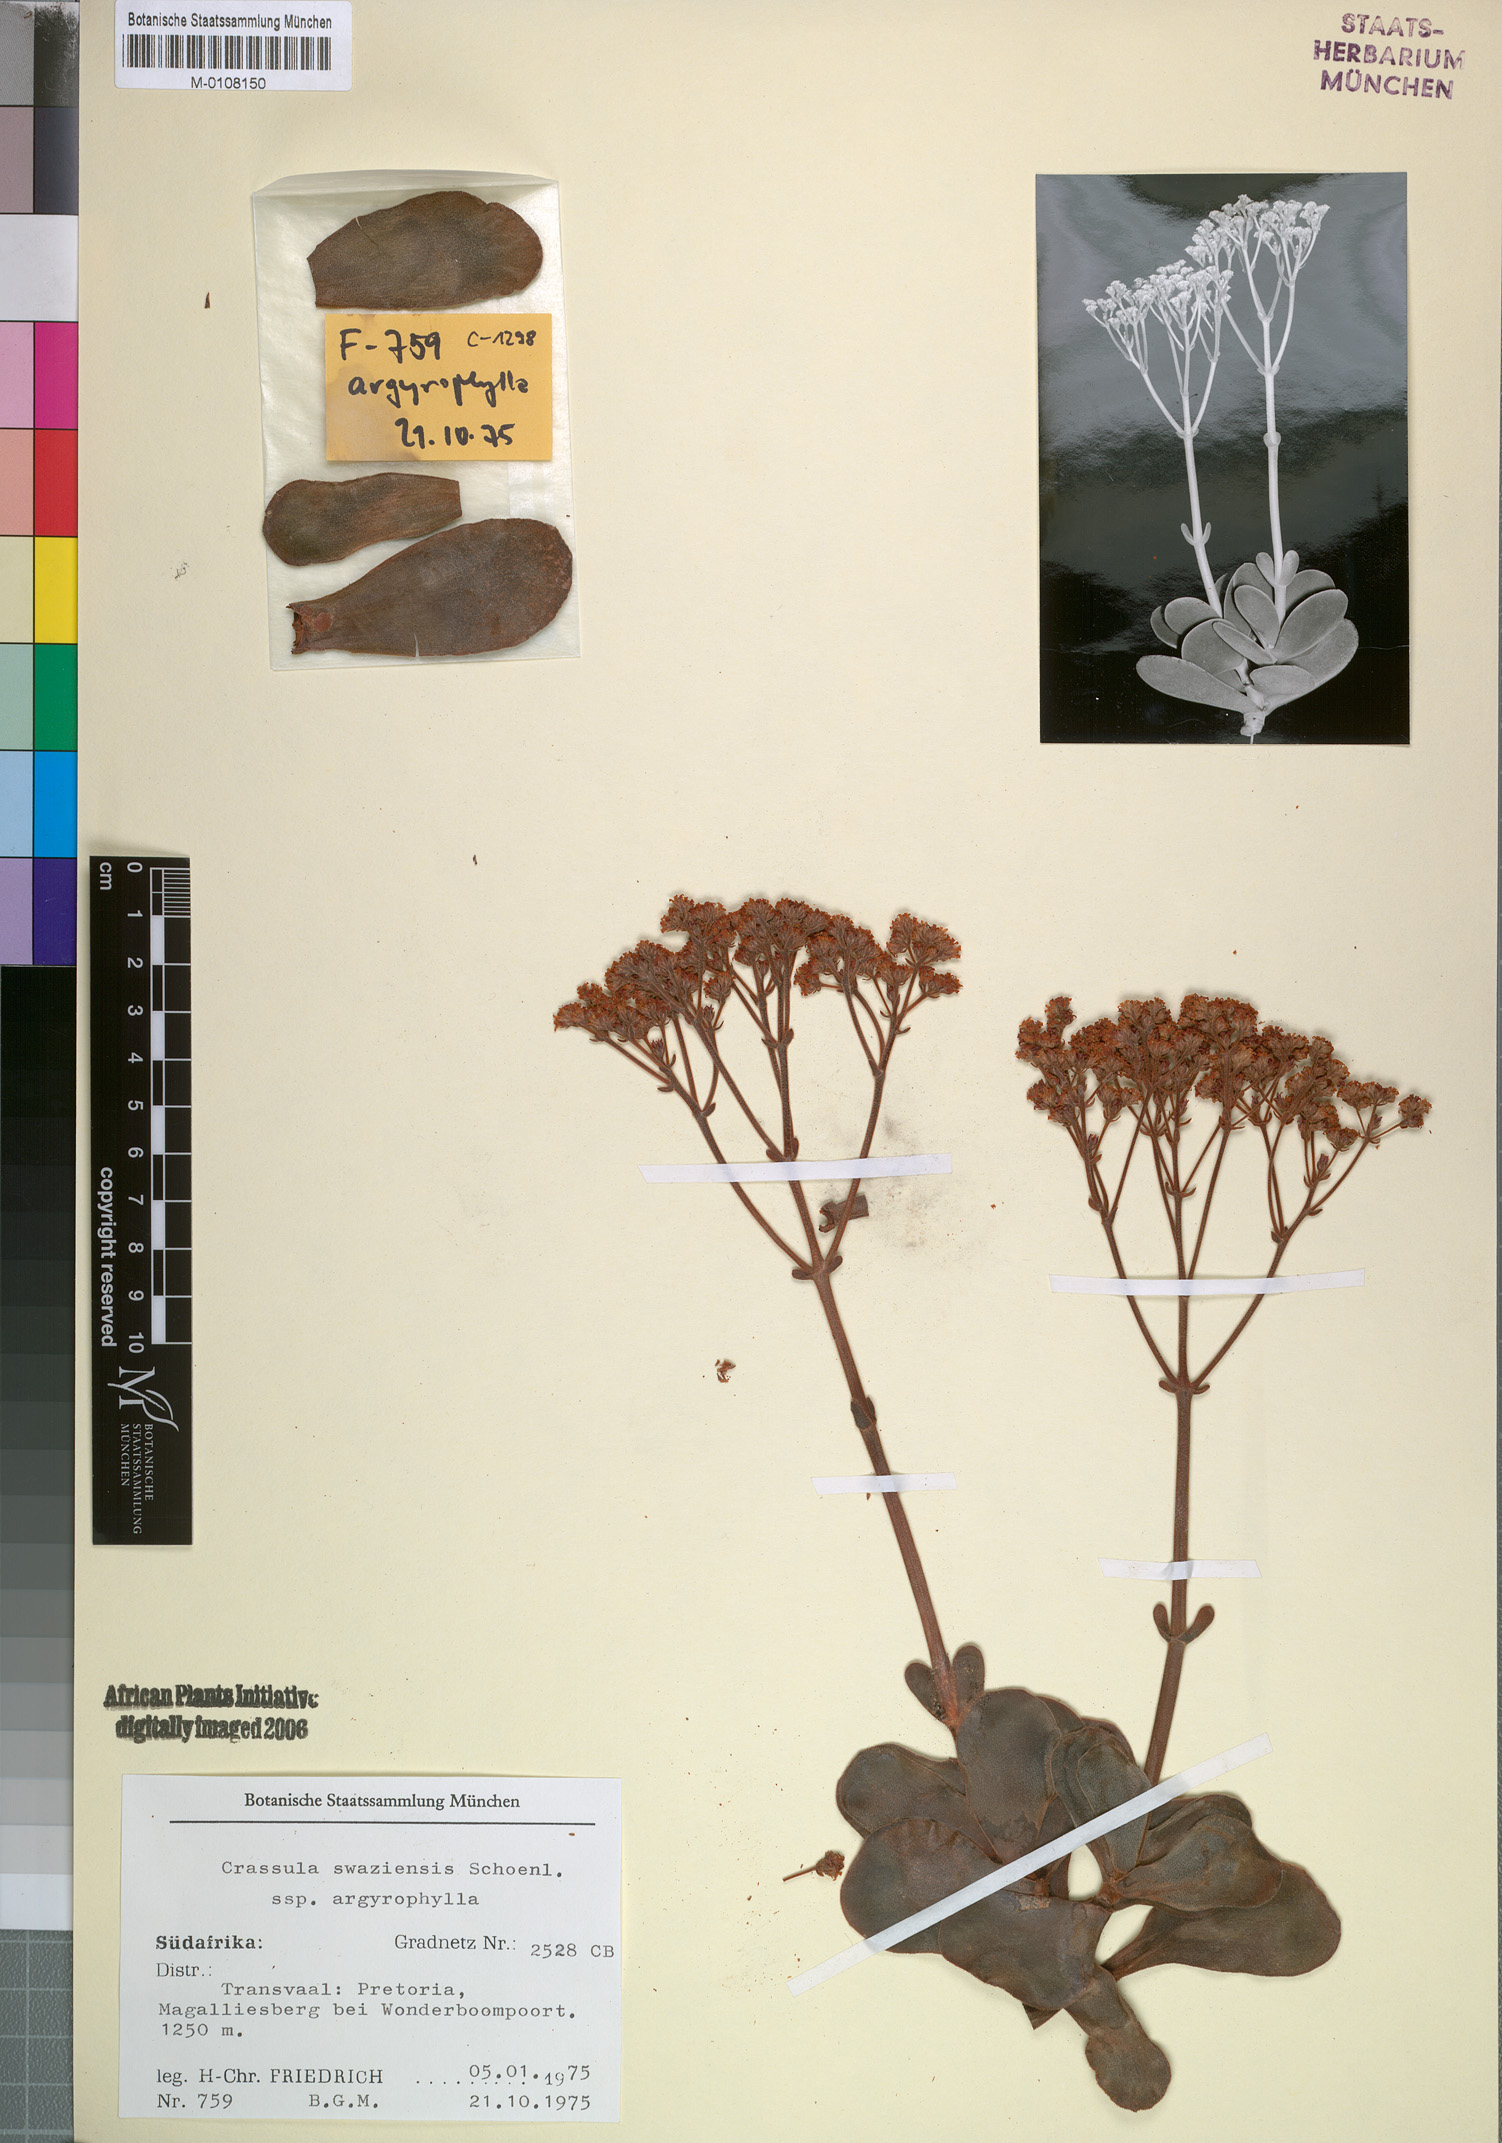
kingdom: Plantae
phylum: Tracheophyta
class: Magnoliopsida
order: Saxifragales
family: Crassulaceae
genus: Crassula
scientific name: Crassula globularioides
